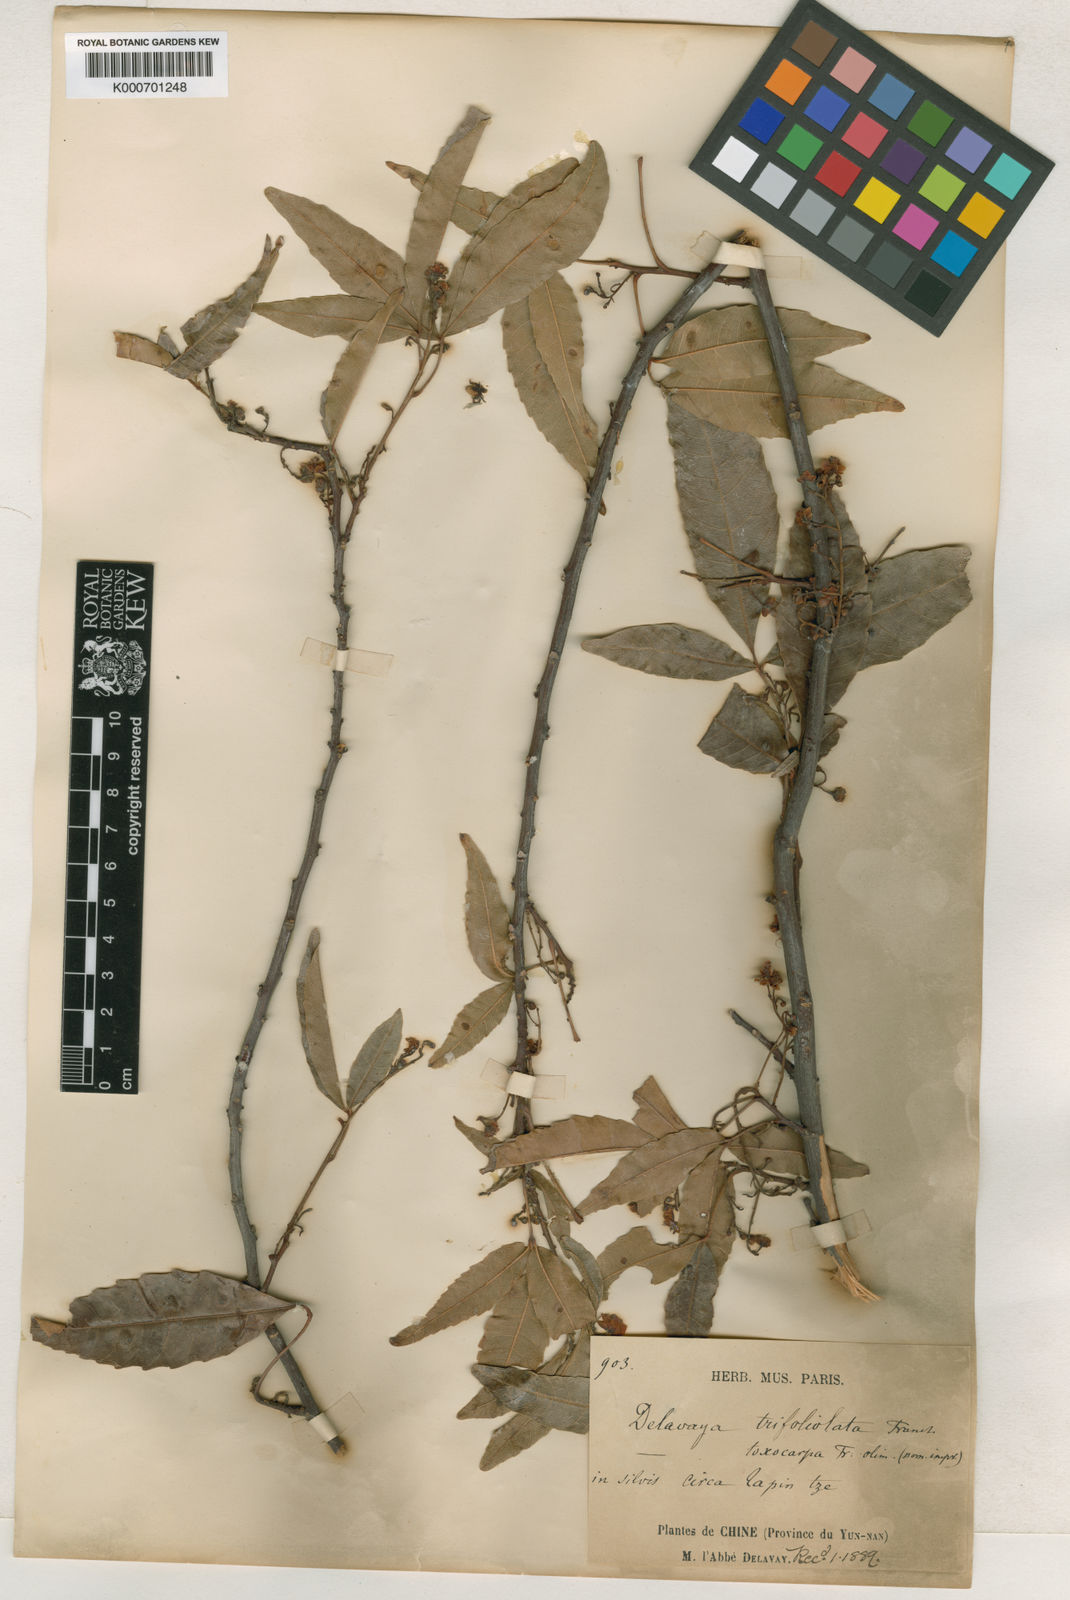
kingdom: Plantae
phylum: Tracheophyta
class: Magnoliopsida
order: Sapindales
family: Sapindaceae
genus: Delavaya
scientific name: Delavaya
